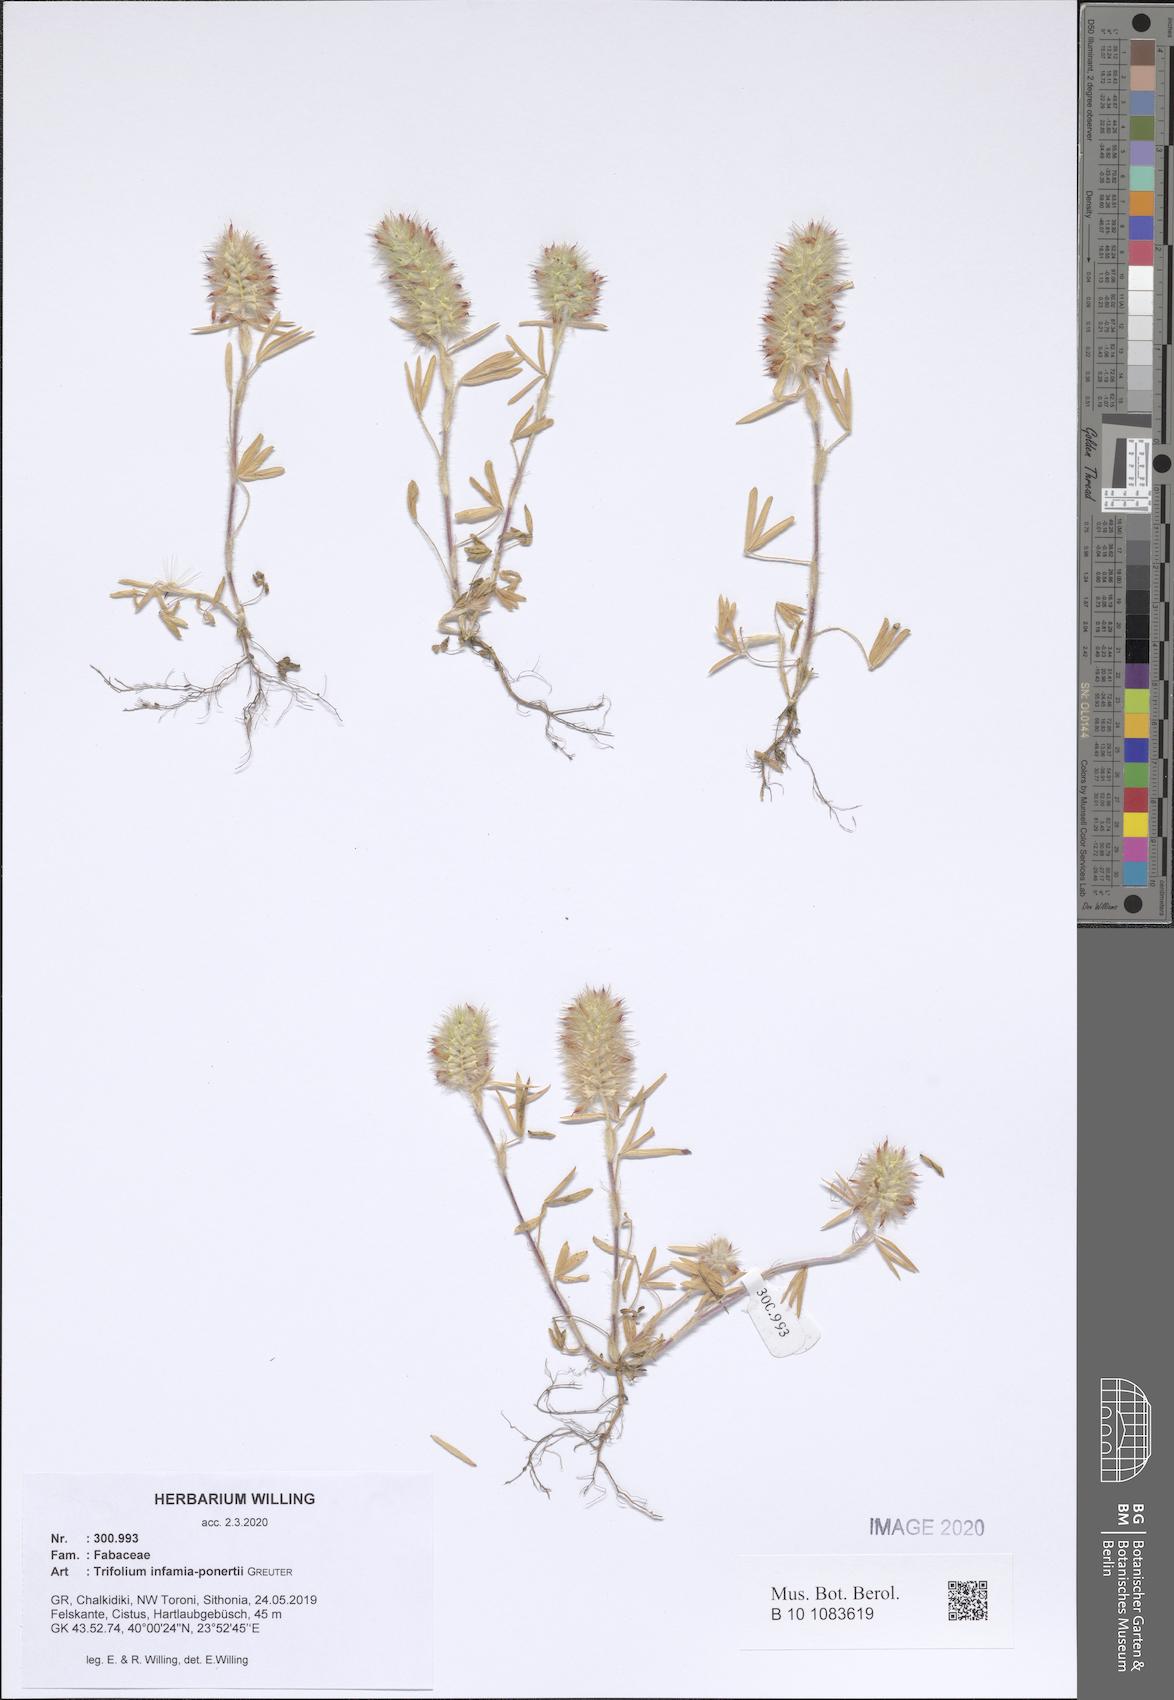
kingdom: Plantae
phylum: Tracheophyta
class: Magnoliopsida
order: Fabales
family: Fabaceae
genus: Trifolium
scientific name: Trifolium infamia-ponertii
